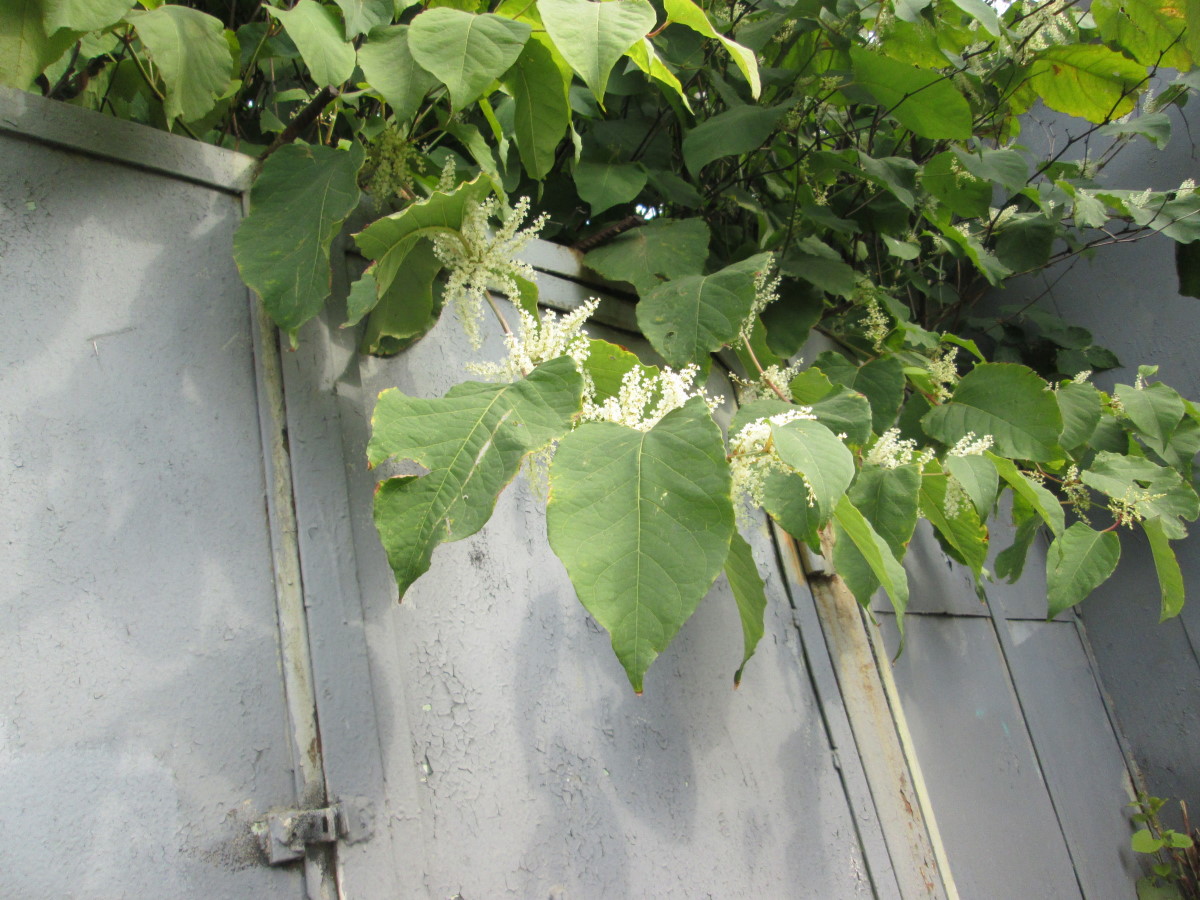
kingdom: Plantae
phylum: Tracheophyta
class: Magnoliopsida
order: Caryophyllales
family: Polygonaceae
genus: Reynoutria
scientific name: Reynoutria sachalinensis
